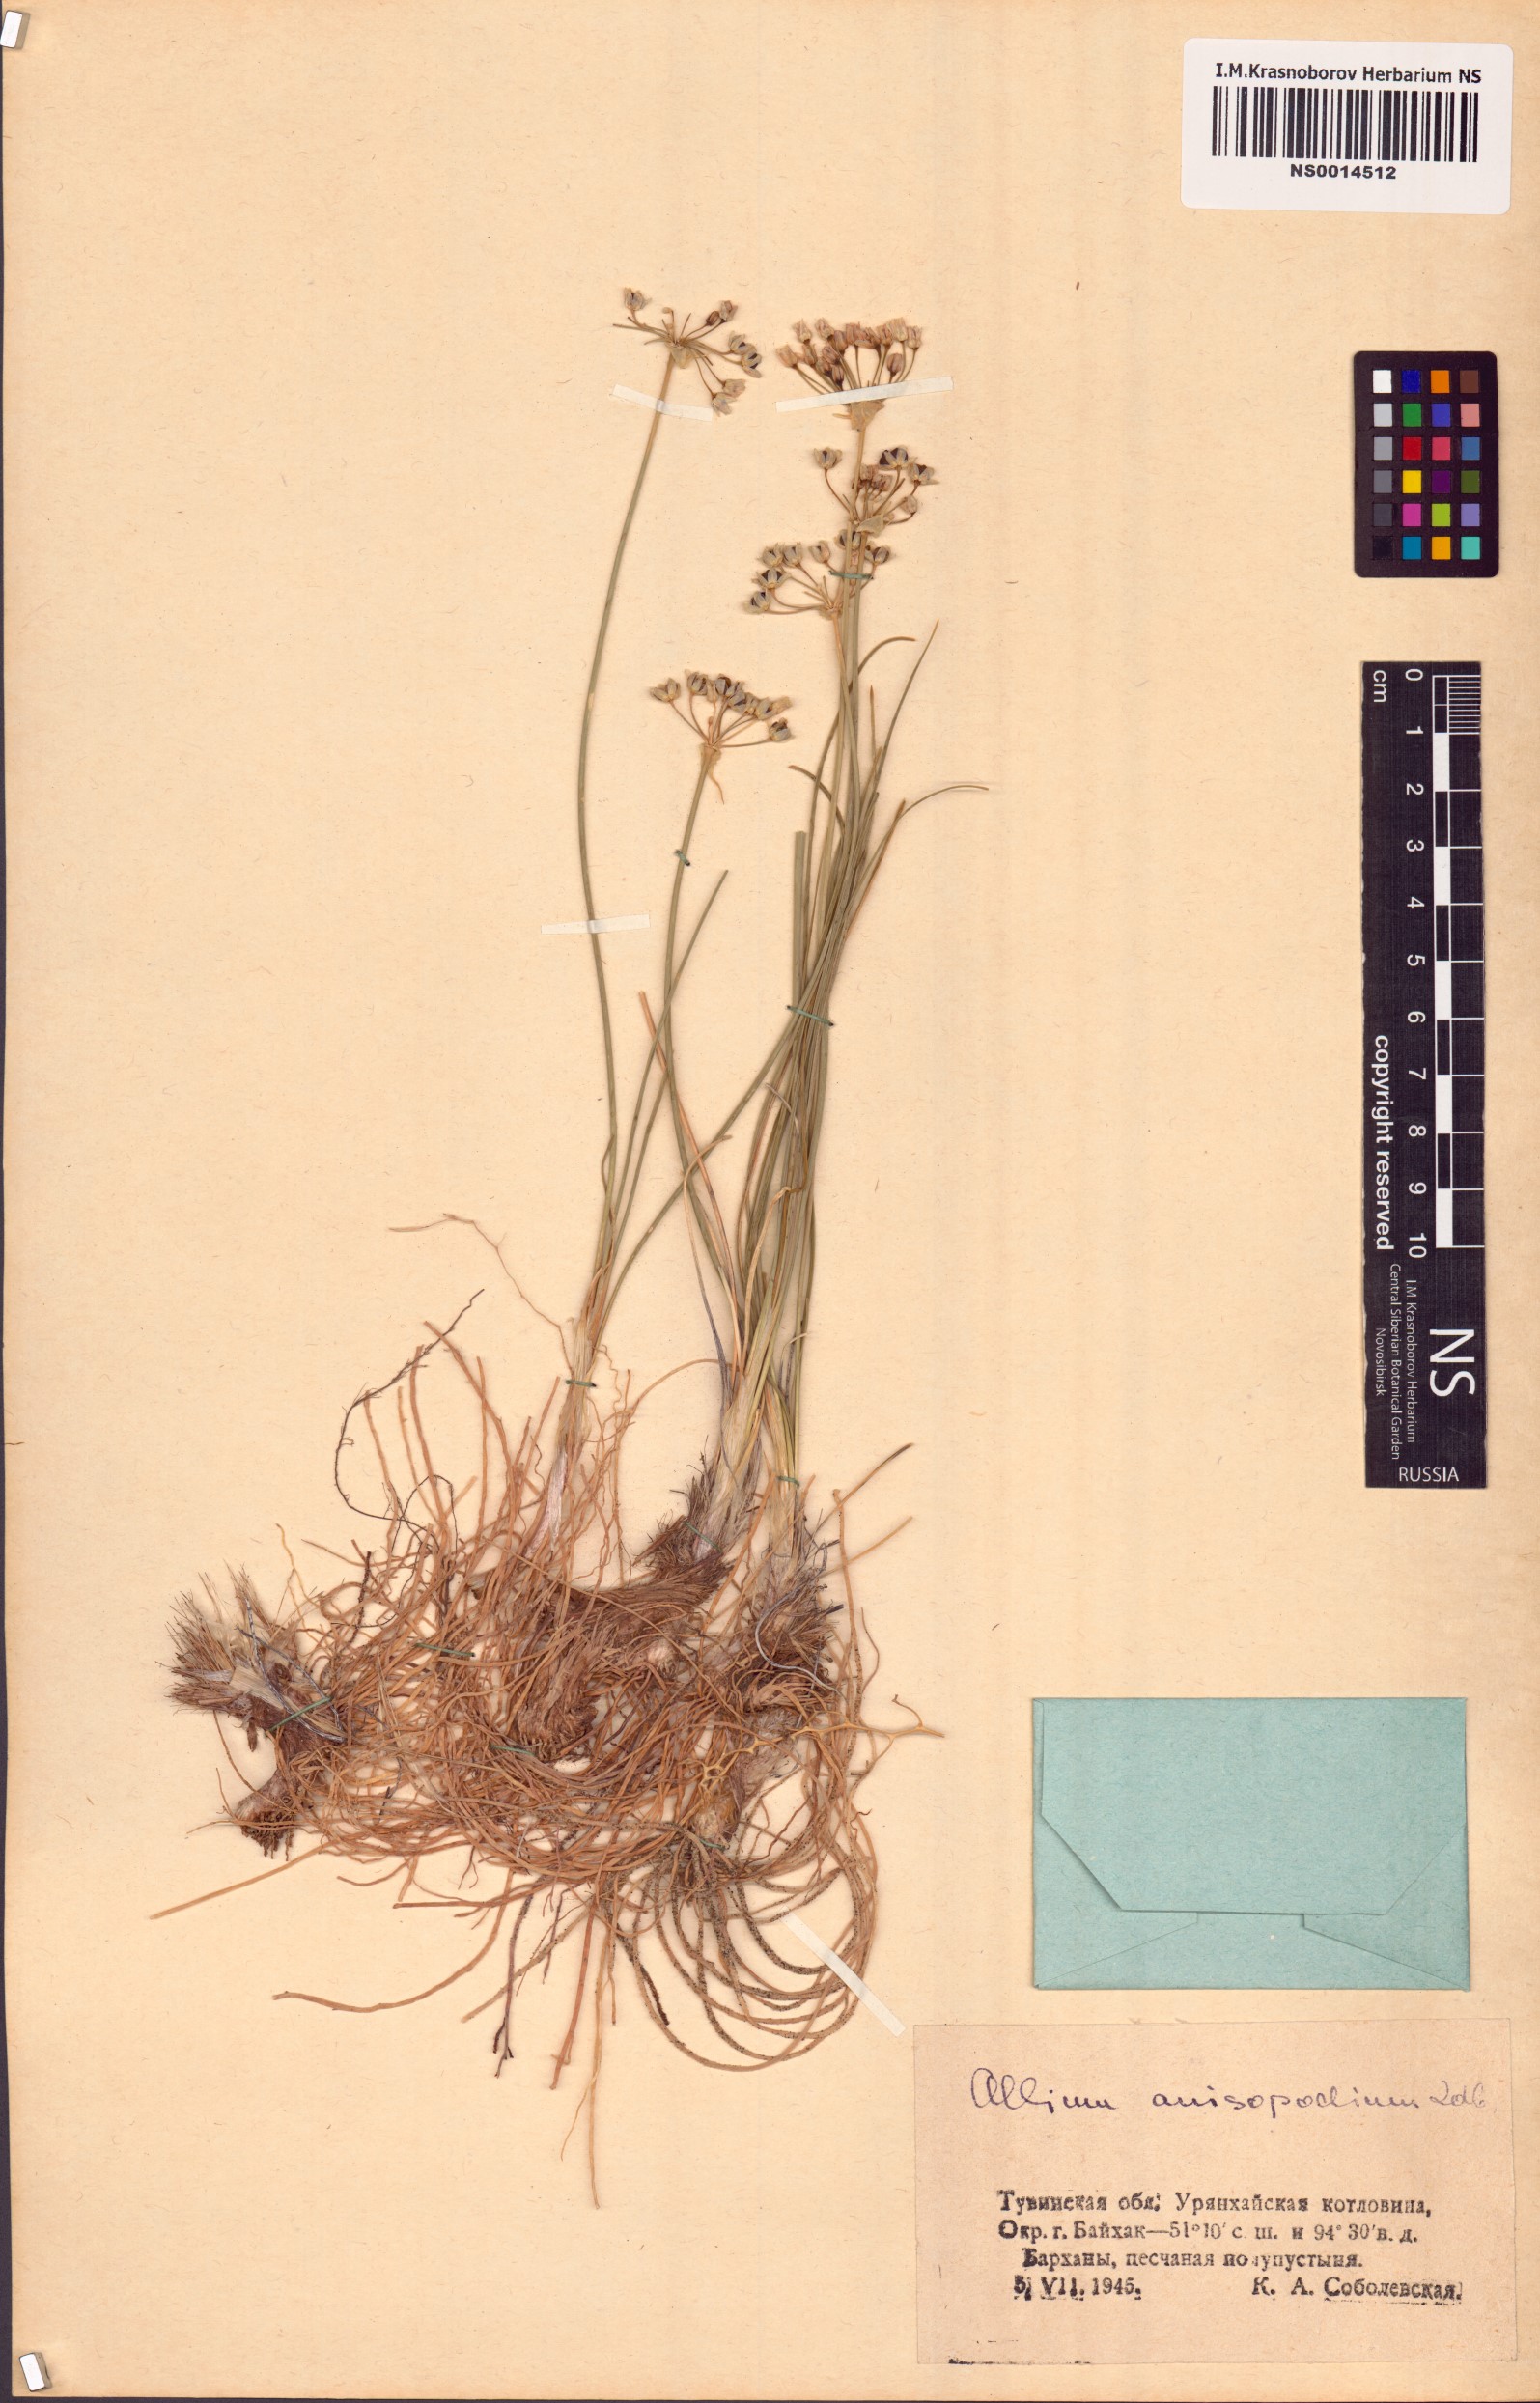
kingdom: Plantae
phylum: Tracheophyta
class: Liliopsida
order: Asparagales
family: Amaryllidaceae
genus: Allium
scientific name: Allium anisopodium
